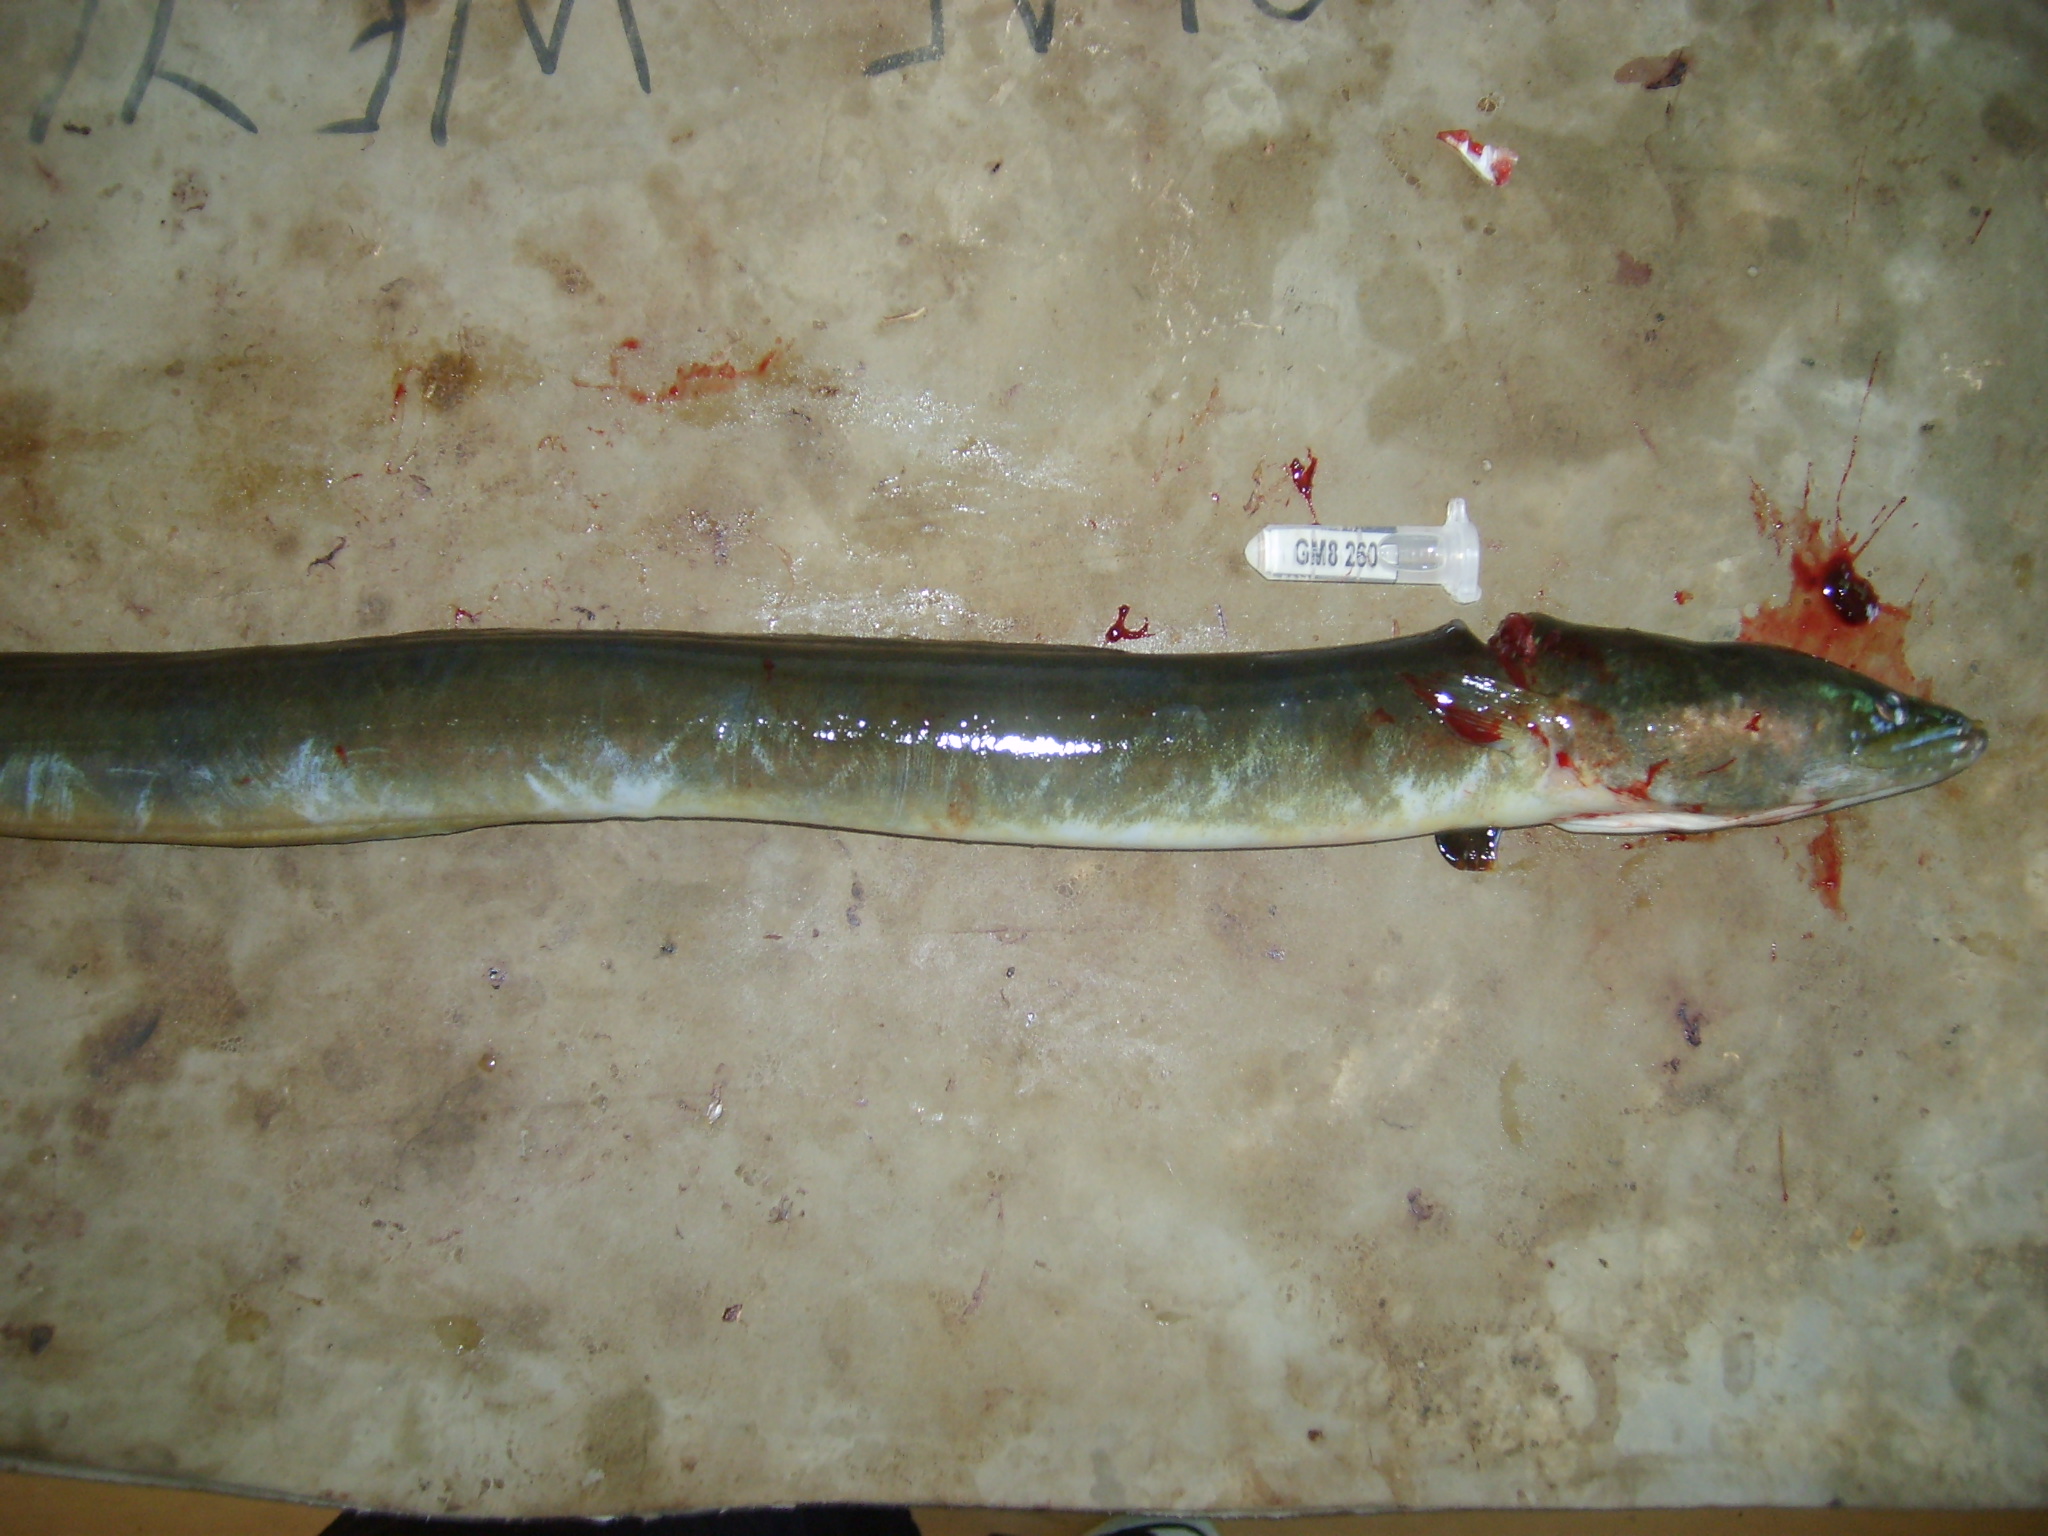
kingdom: Animalia
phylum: Chordata
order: Anguilliformes
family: Anguillidae
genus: Anguilla
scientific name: Anguilla mossambica
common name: African longfin eel
